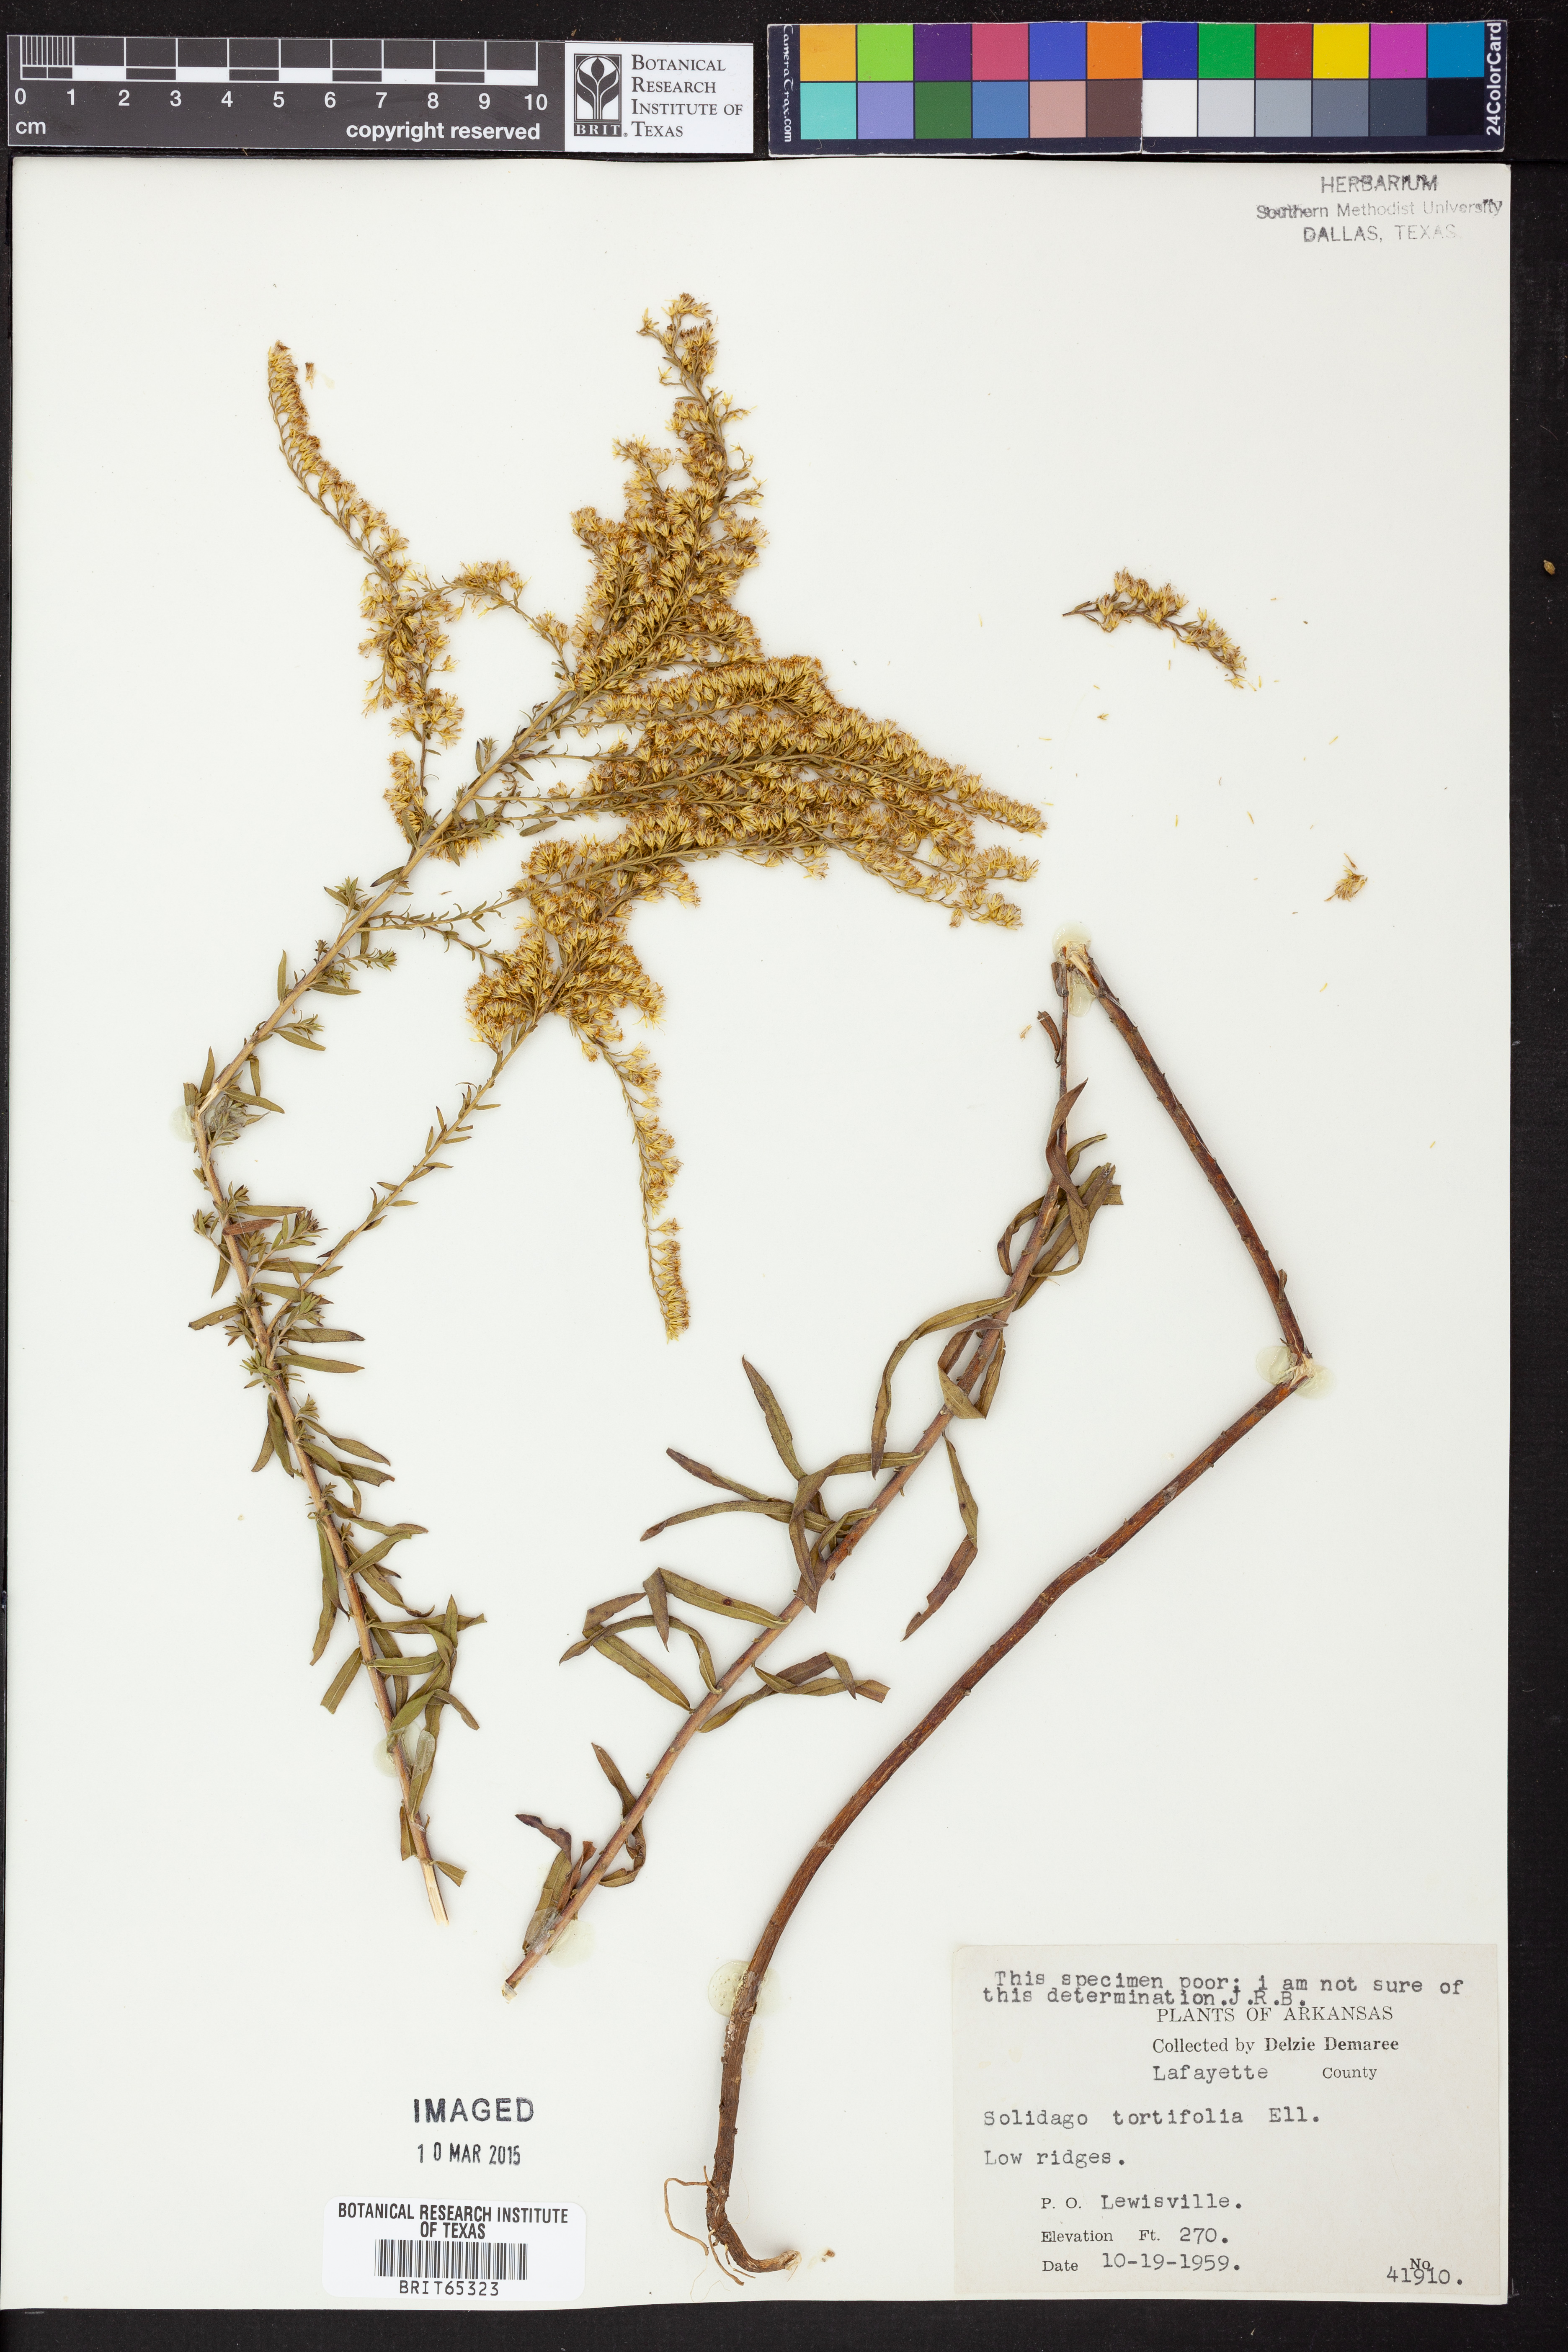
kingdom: Plantae
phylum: Tracheophyta
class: Magnoliopsida
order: Asterales
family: Asteraceae
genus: Solidago
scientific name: Solidago tortifolia
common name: Twisted-leaf goldenrod
